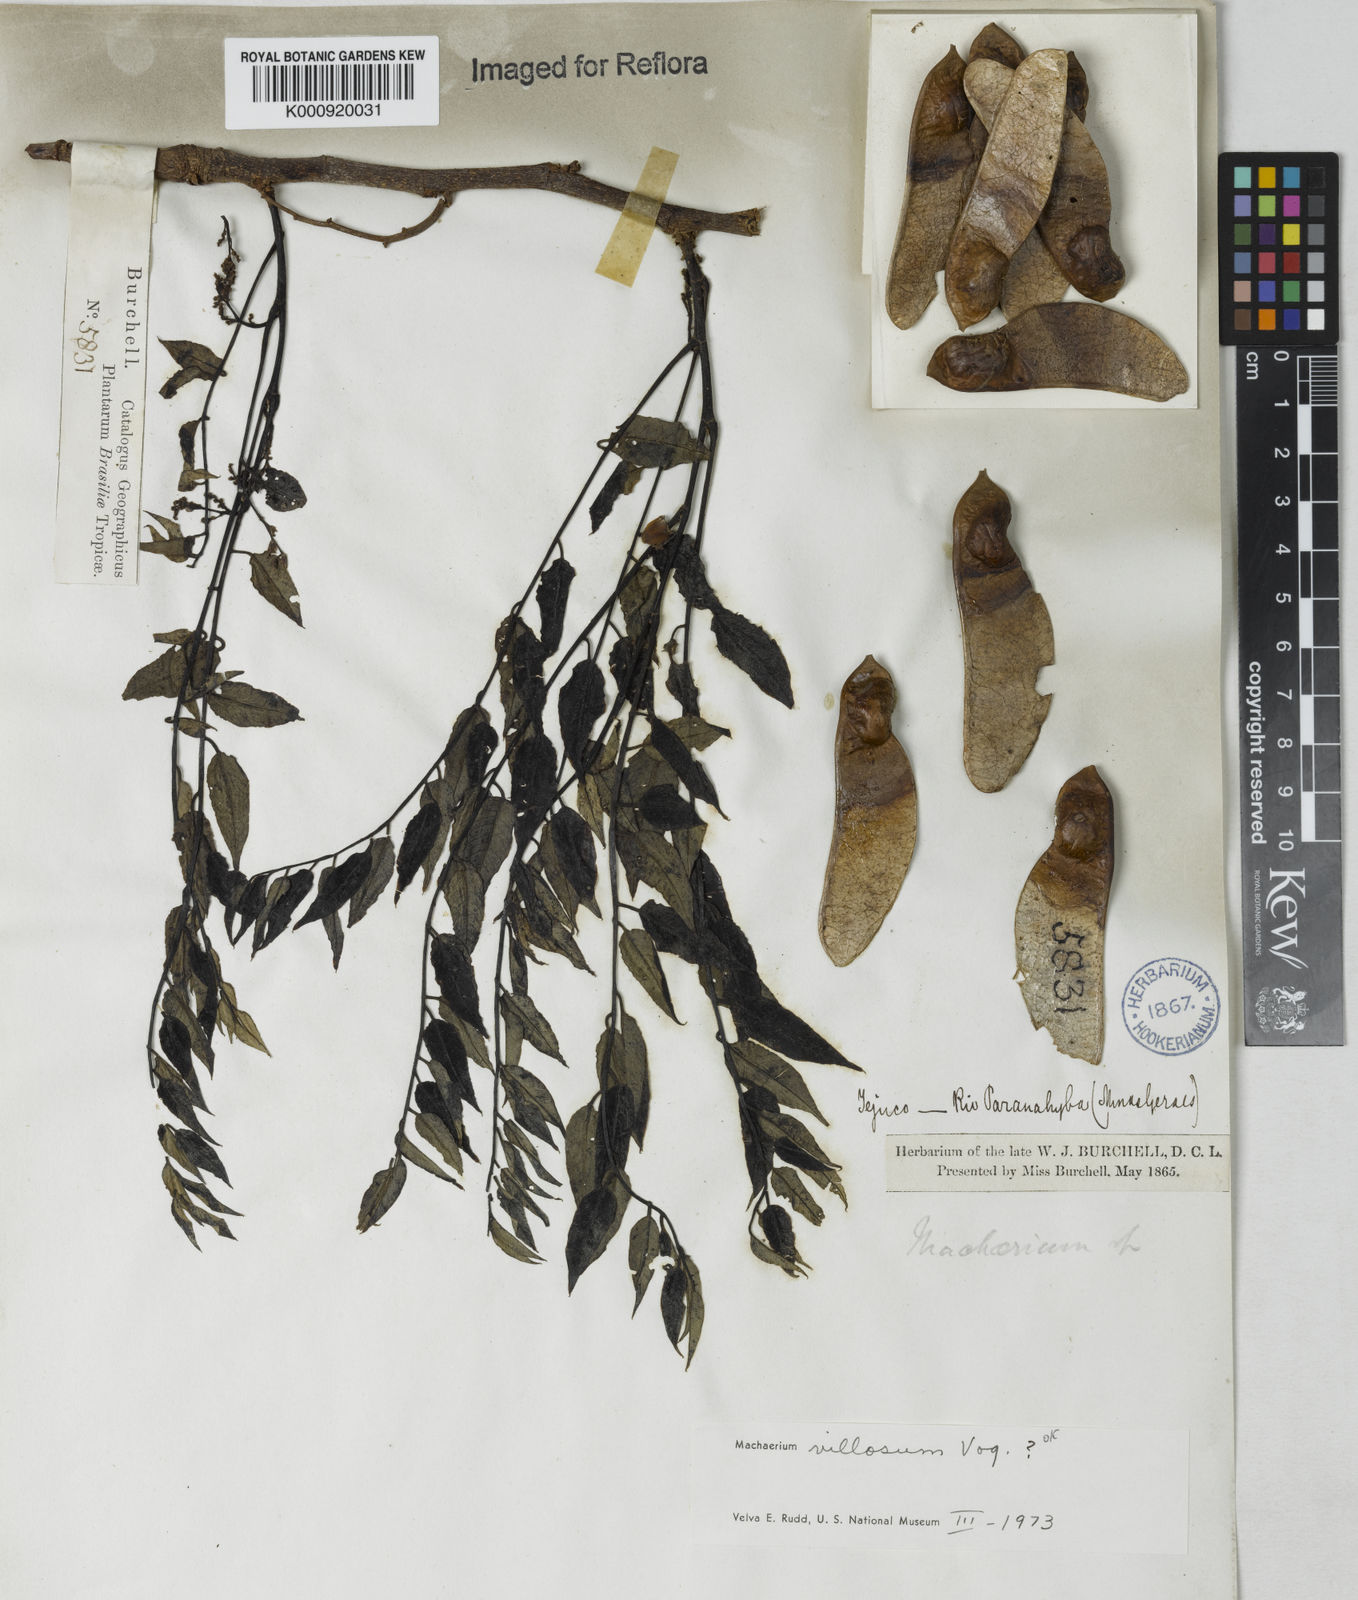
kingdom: Plantae
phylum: Tracheophyta
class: Magnoliopsida
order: Fabales
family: Fabaceae
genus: Machaerium
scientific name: Machaerium villosum
